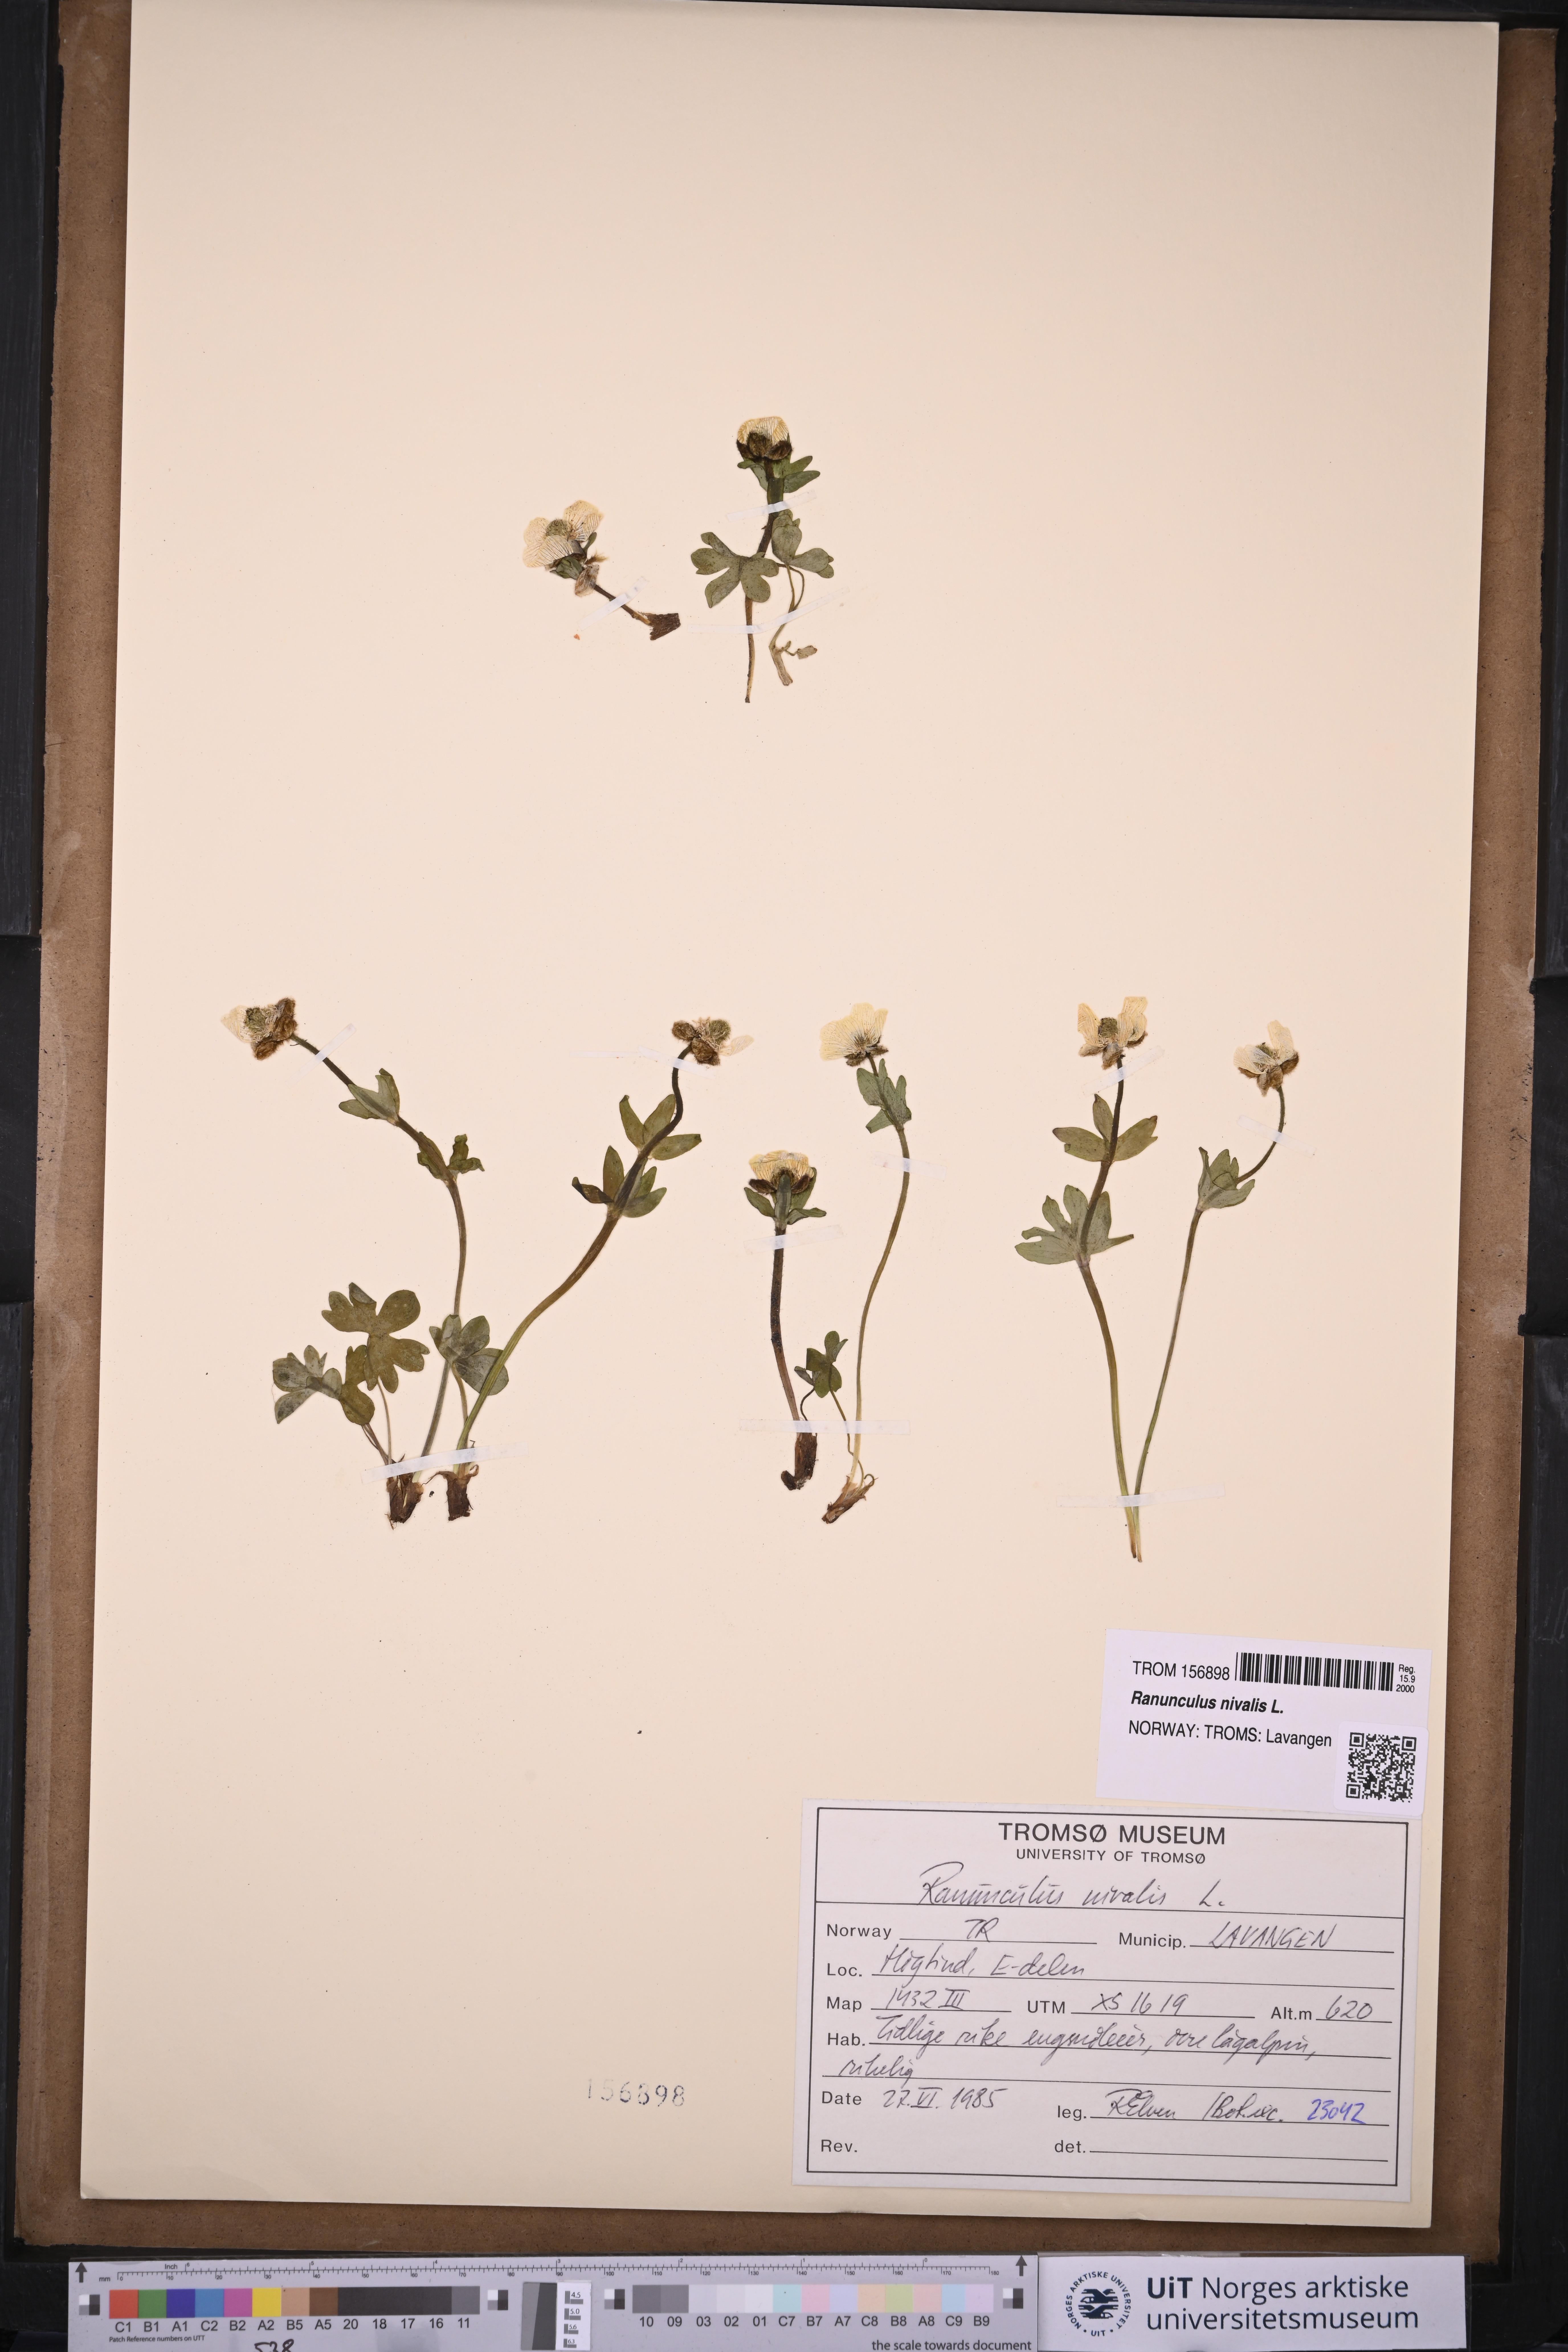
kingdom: Plantae
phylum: Tracheophyta
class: Magnoliopsida
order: Ranunculales
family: Ranunculaceae
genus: Ranunculus
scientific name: Ranunculus nivalis
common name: Snow buttercup
